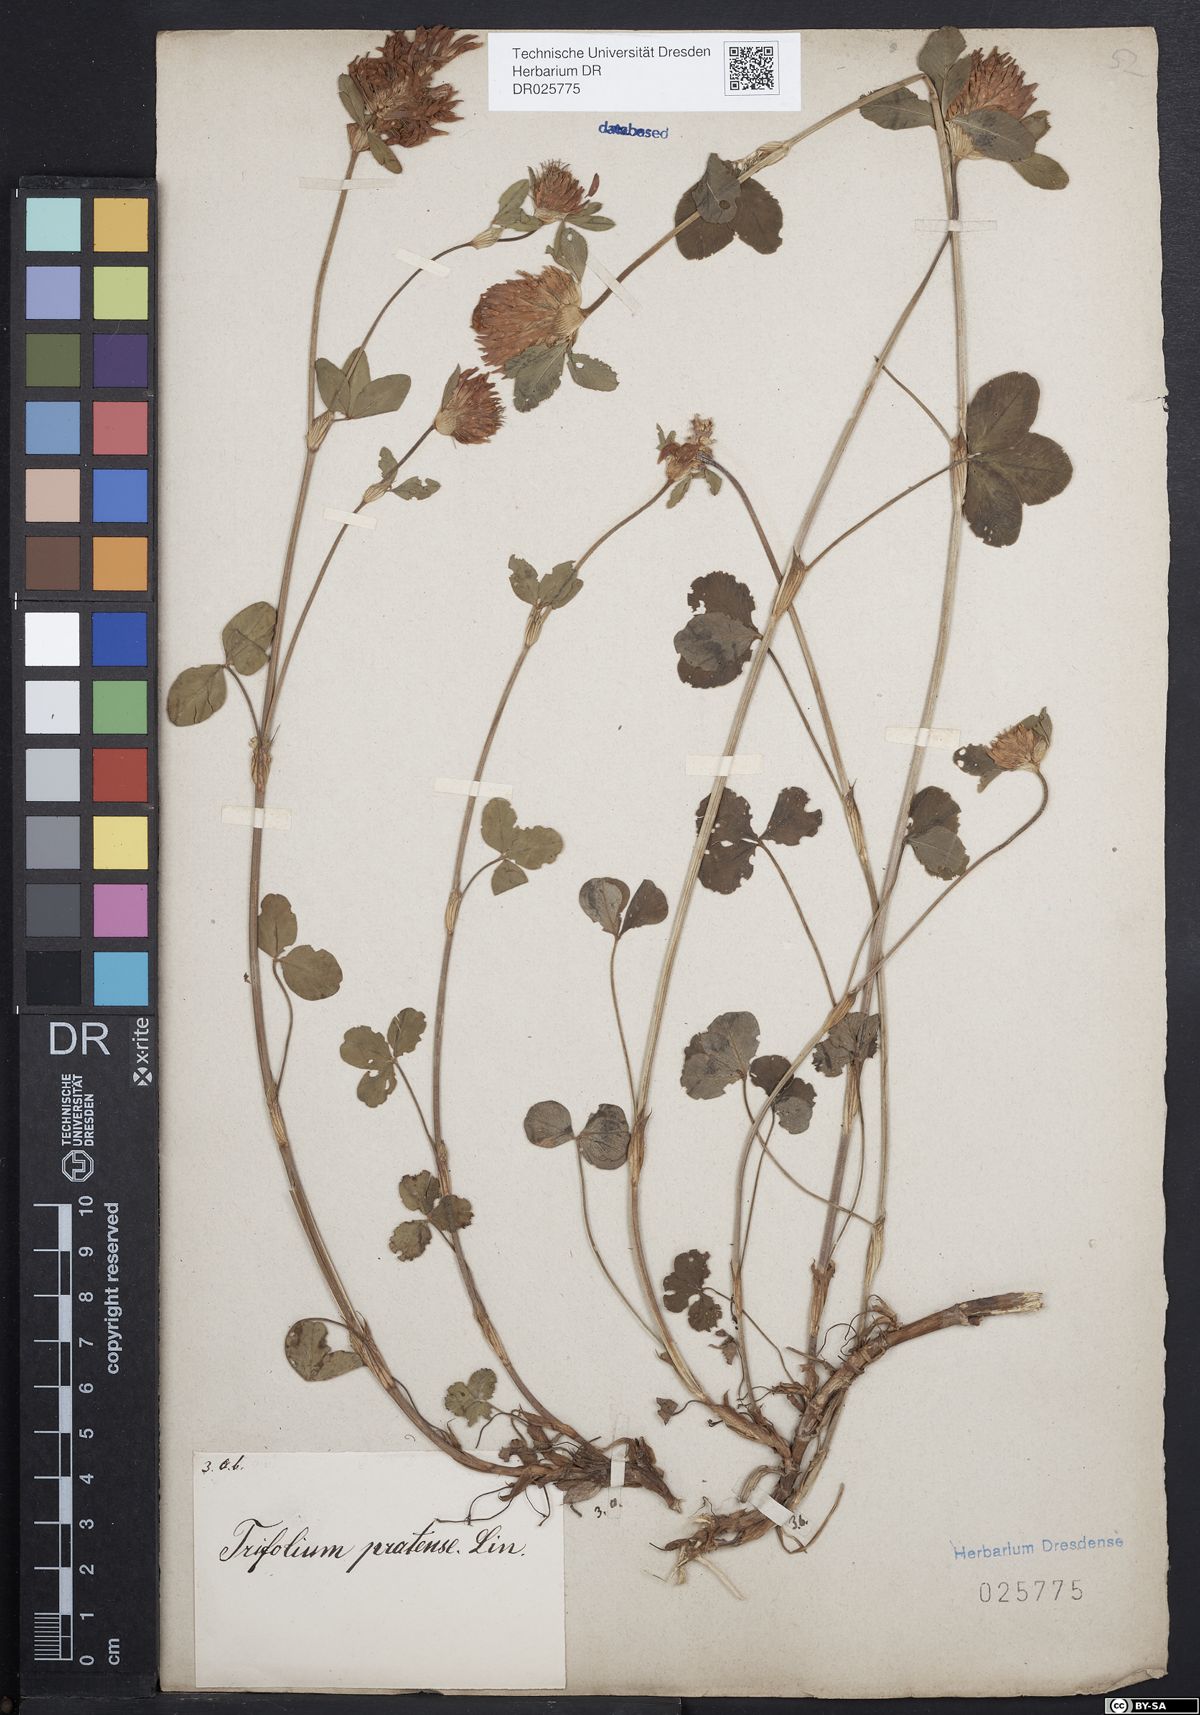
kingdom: Plantae
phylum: Tracheophyta
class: Magnoliopsida
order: Fabales
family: Fabaceae
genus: Trifolium
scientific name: Trifolium pratense
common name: Red clover
